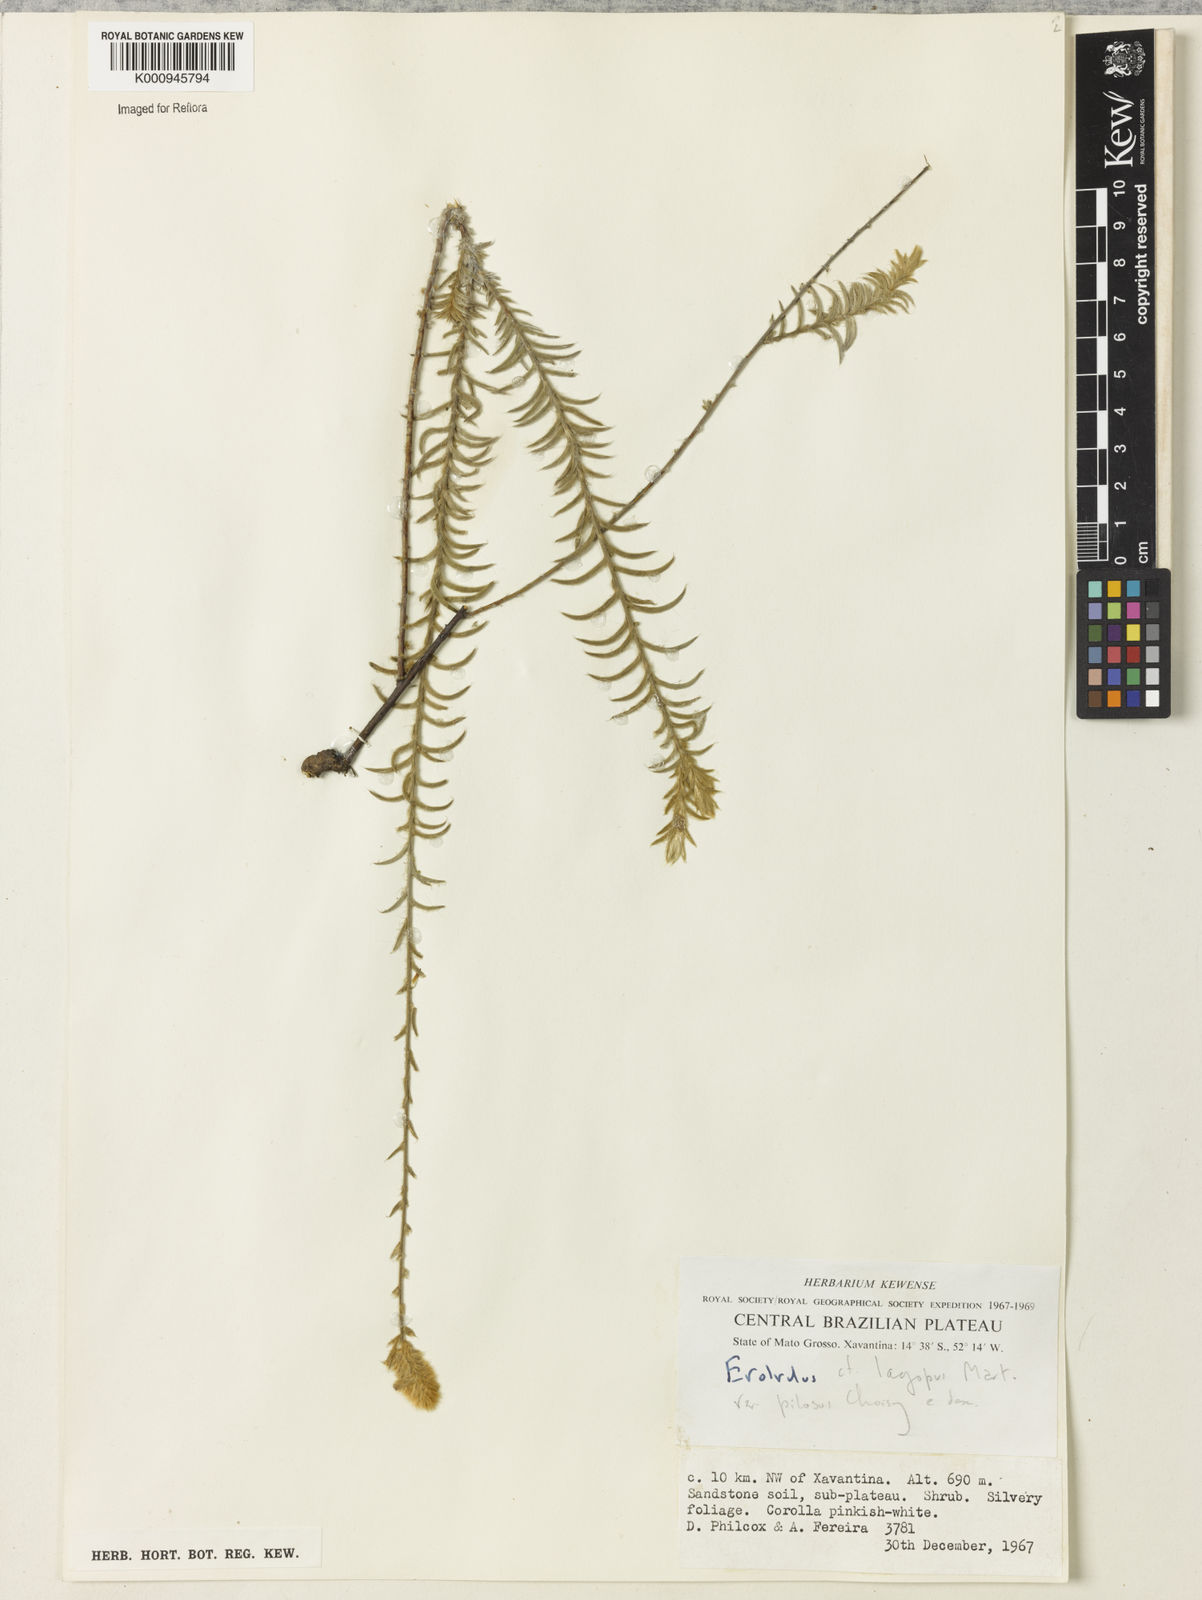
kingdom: Plantae
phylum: Tracheophyta
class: Magnoliopsida
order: Solanales
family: Convolvulaceae
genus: Evolvulus
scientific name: Evolvulus lagopus
